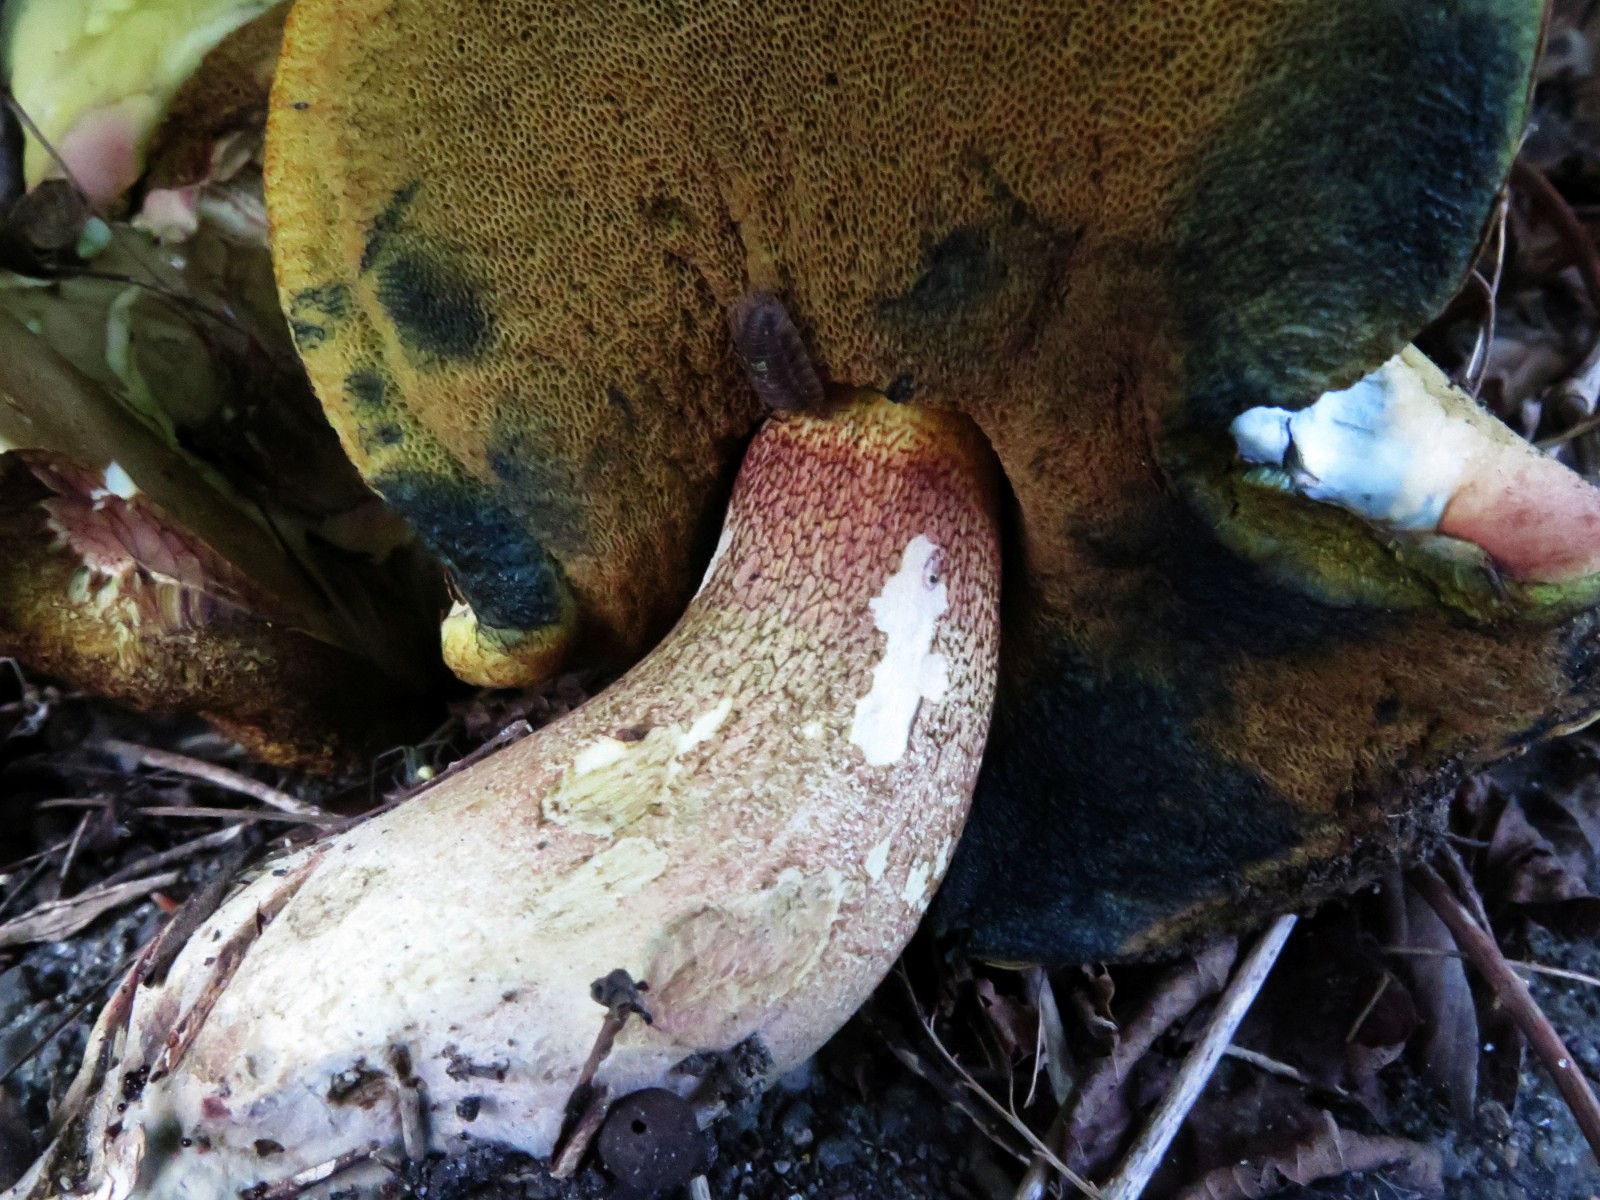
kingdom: Fungi
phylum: Basidiomycota
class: Agaricomycetes
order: Boletales
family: Boletaceae
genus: Suillellus
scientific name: Suillellus luridus
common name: netstokket indigorørhat
